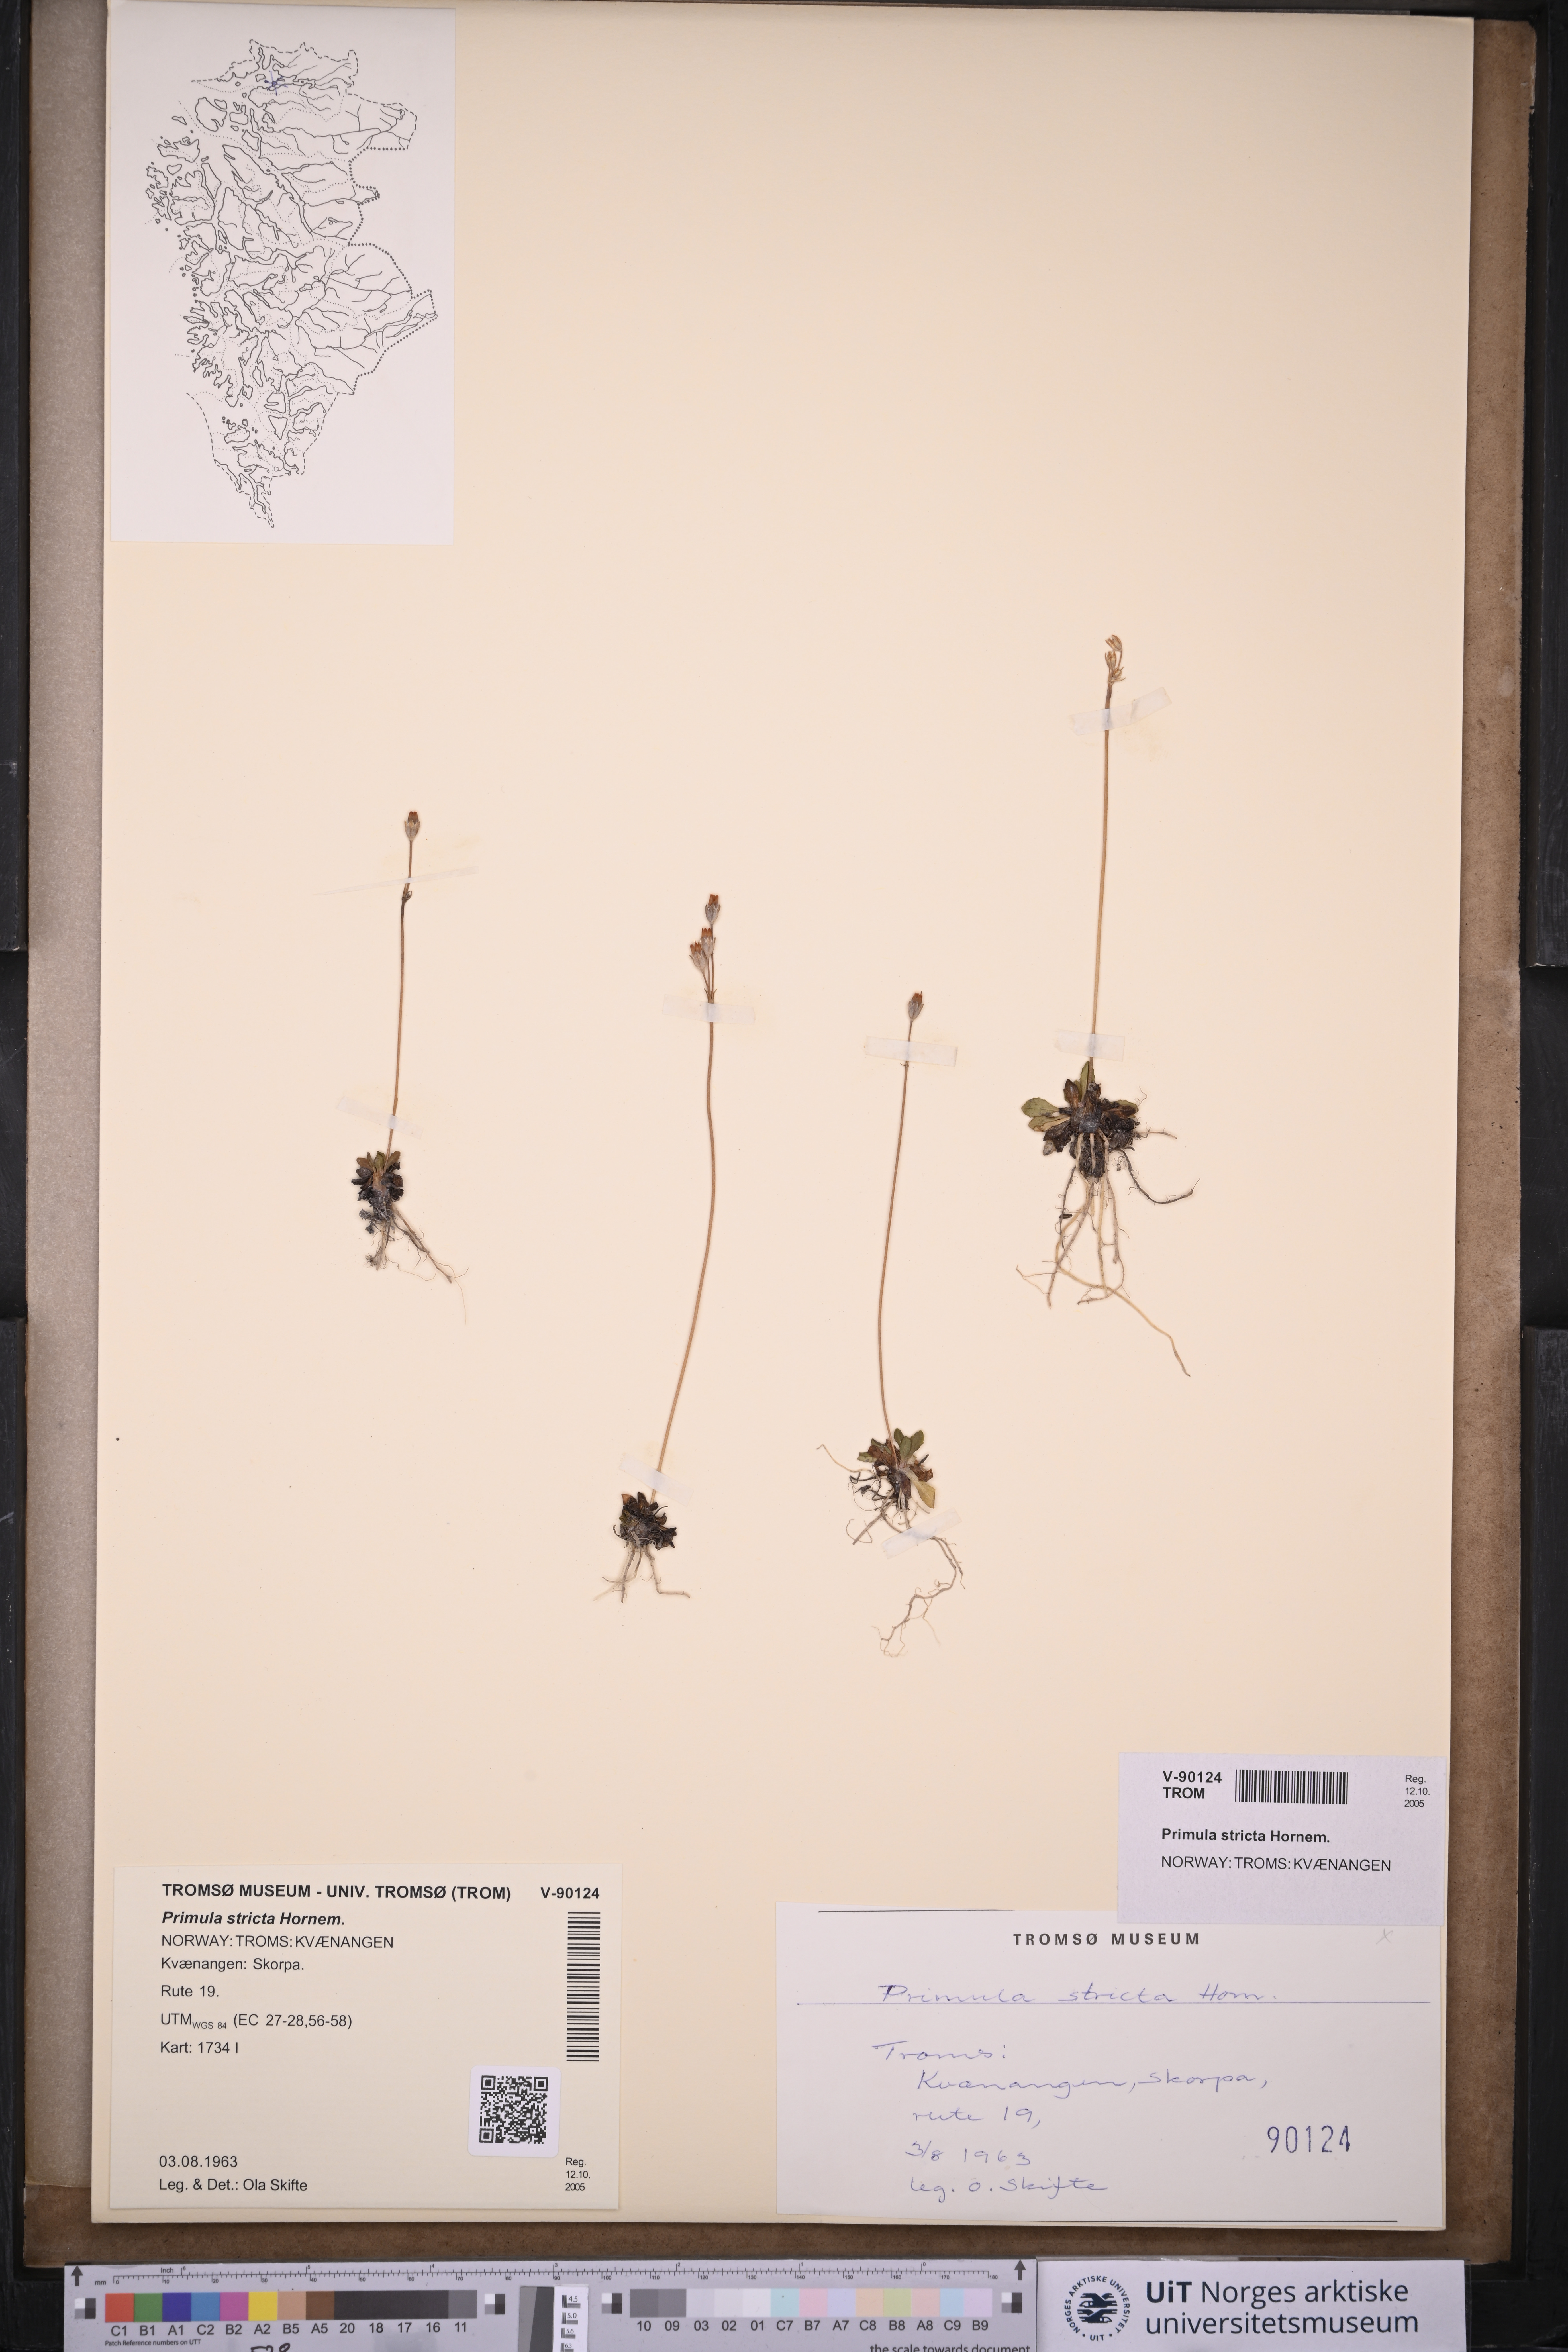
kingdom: Plantae
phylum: Tracheophyta
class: Magnoliopsida
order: Ericales
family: Primulaceae
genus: Primula
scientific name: Primula stricta
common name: Coastal primrose
